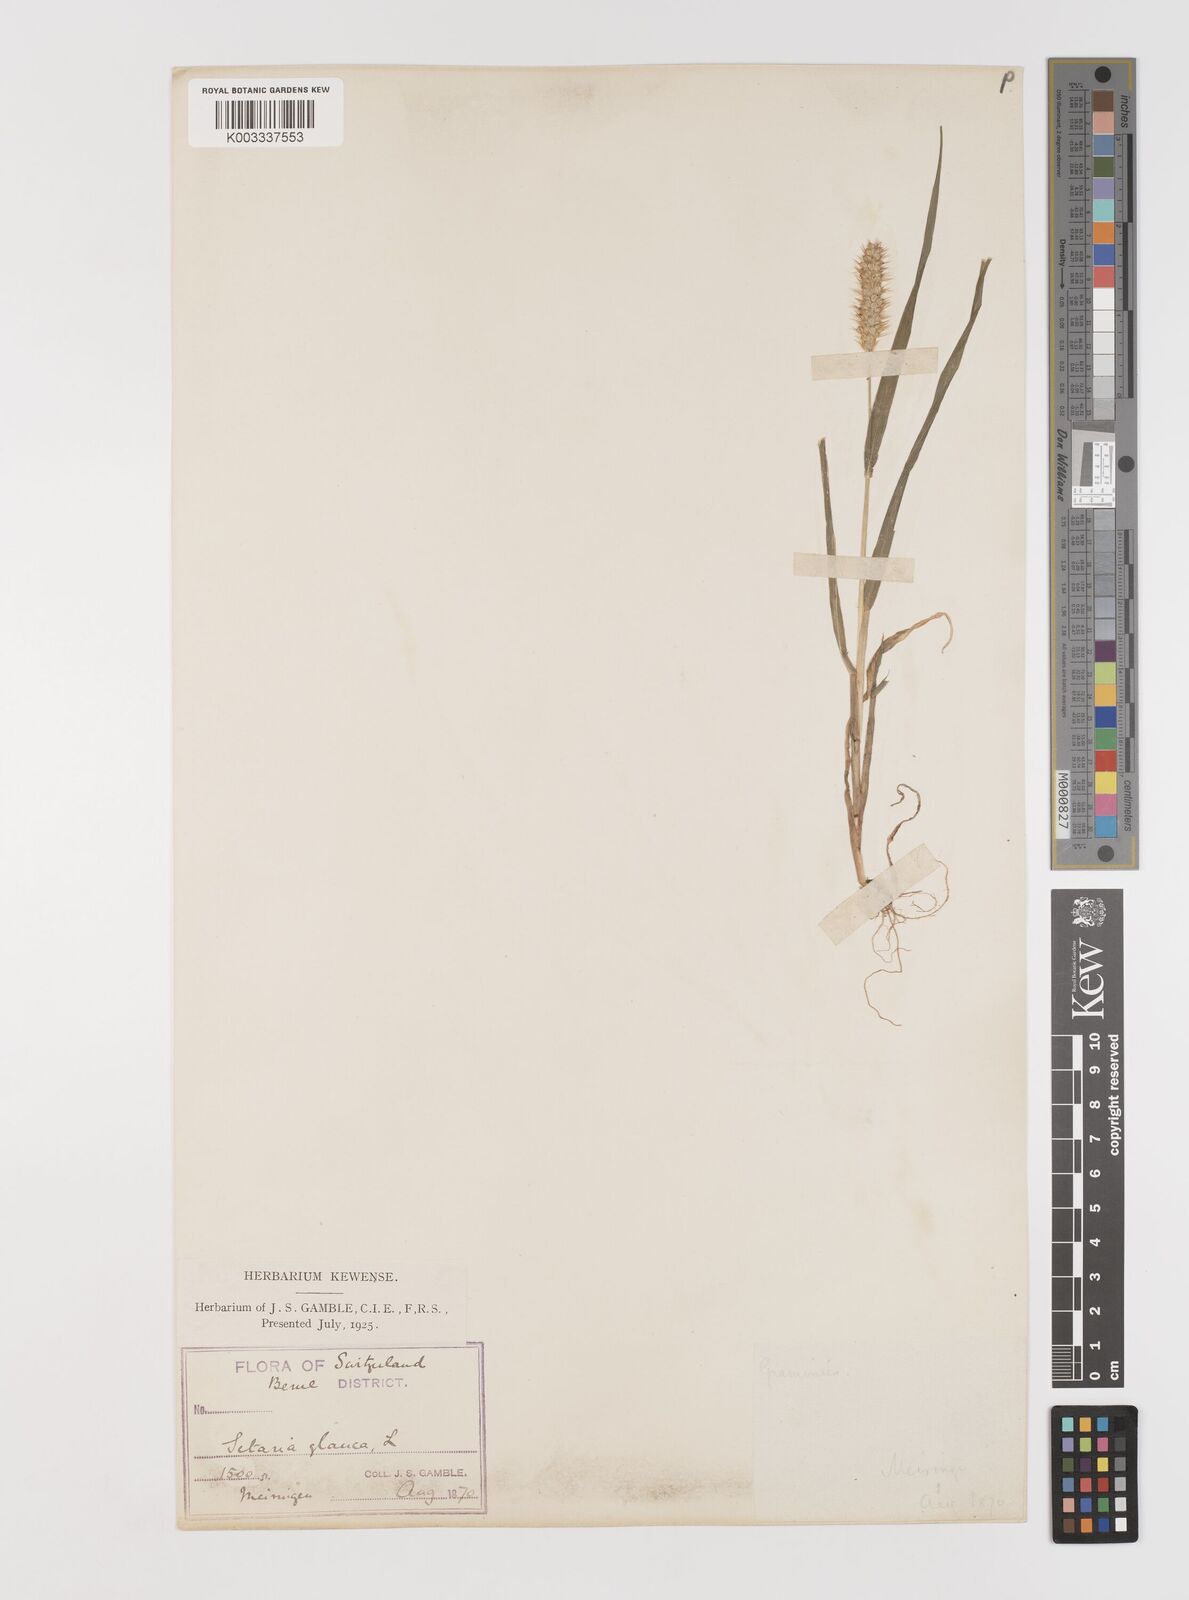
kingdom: Plantae
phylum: Tracheophyta
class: Liliopsida
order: Poales
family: Poaceae
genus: Setaria
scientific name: Setaria pumila
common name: Yellow bristle-grass
